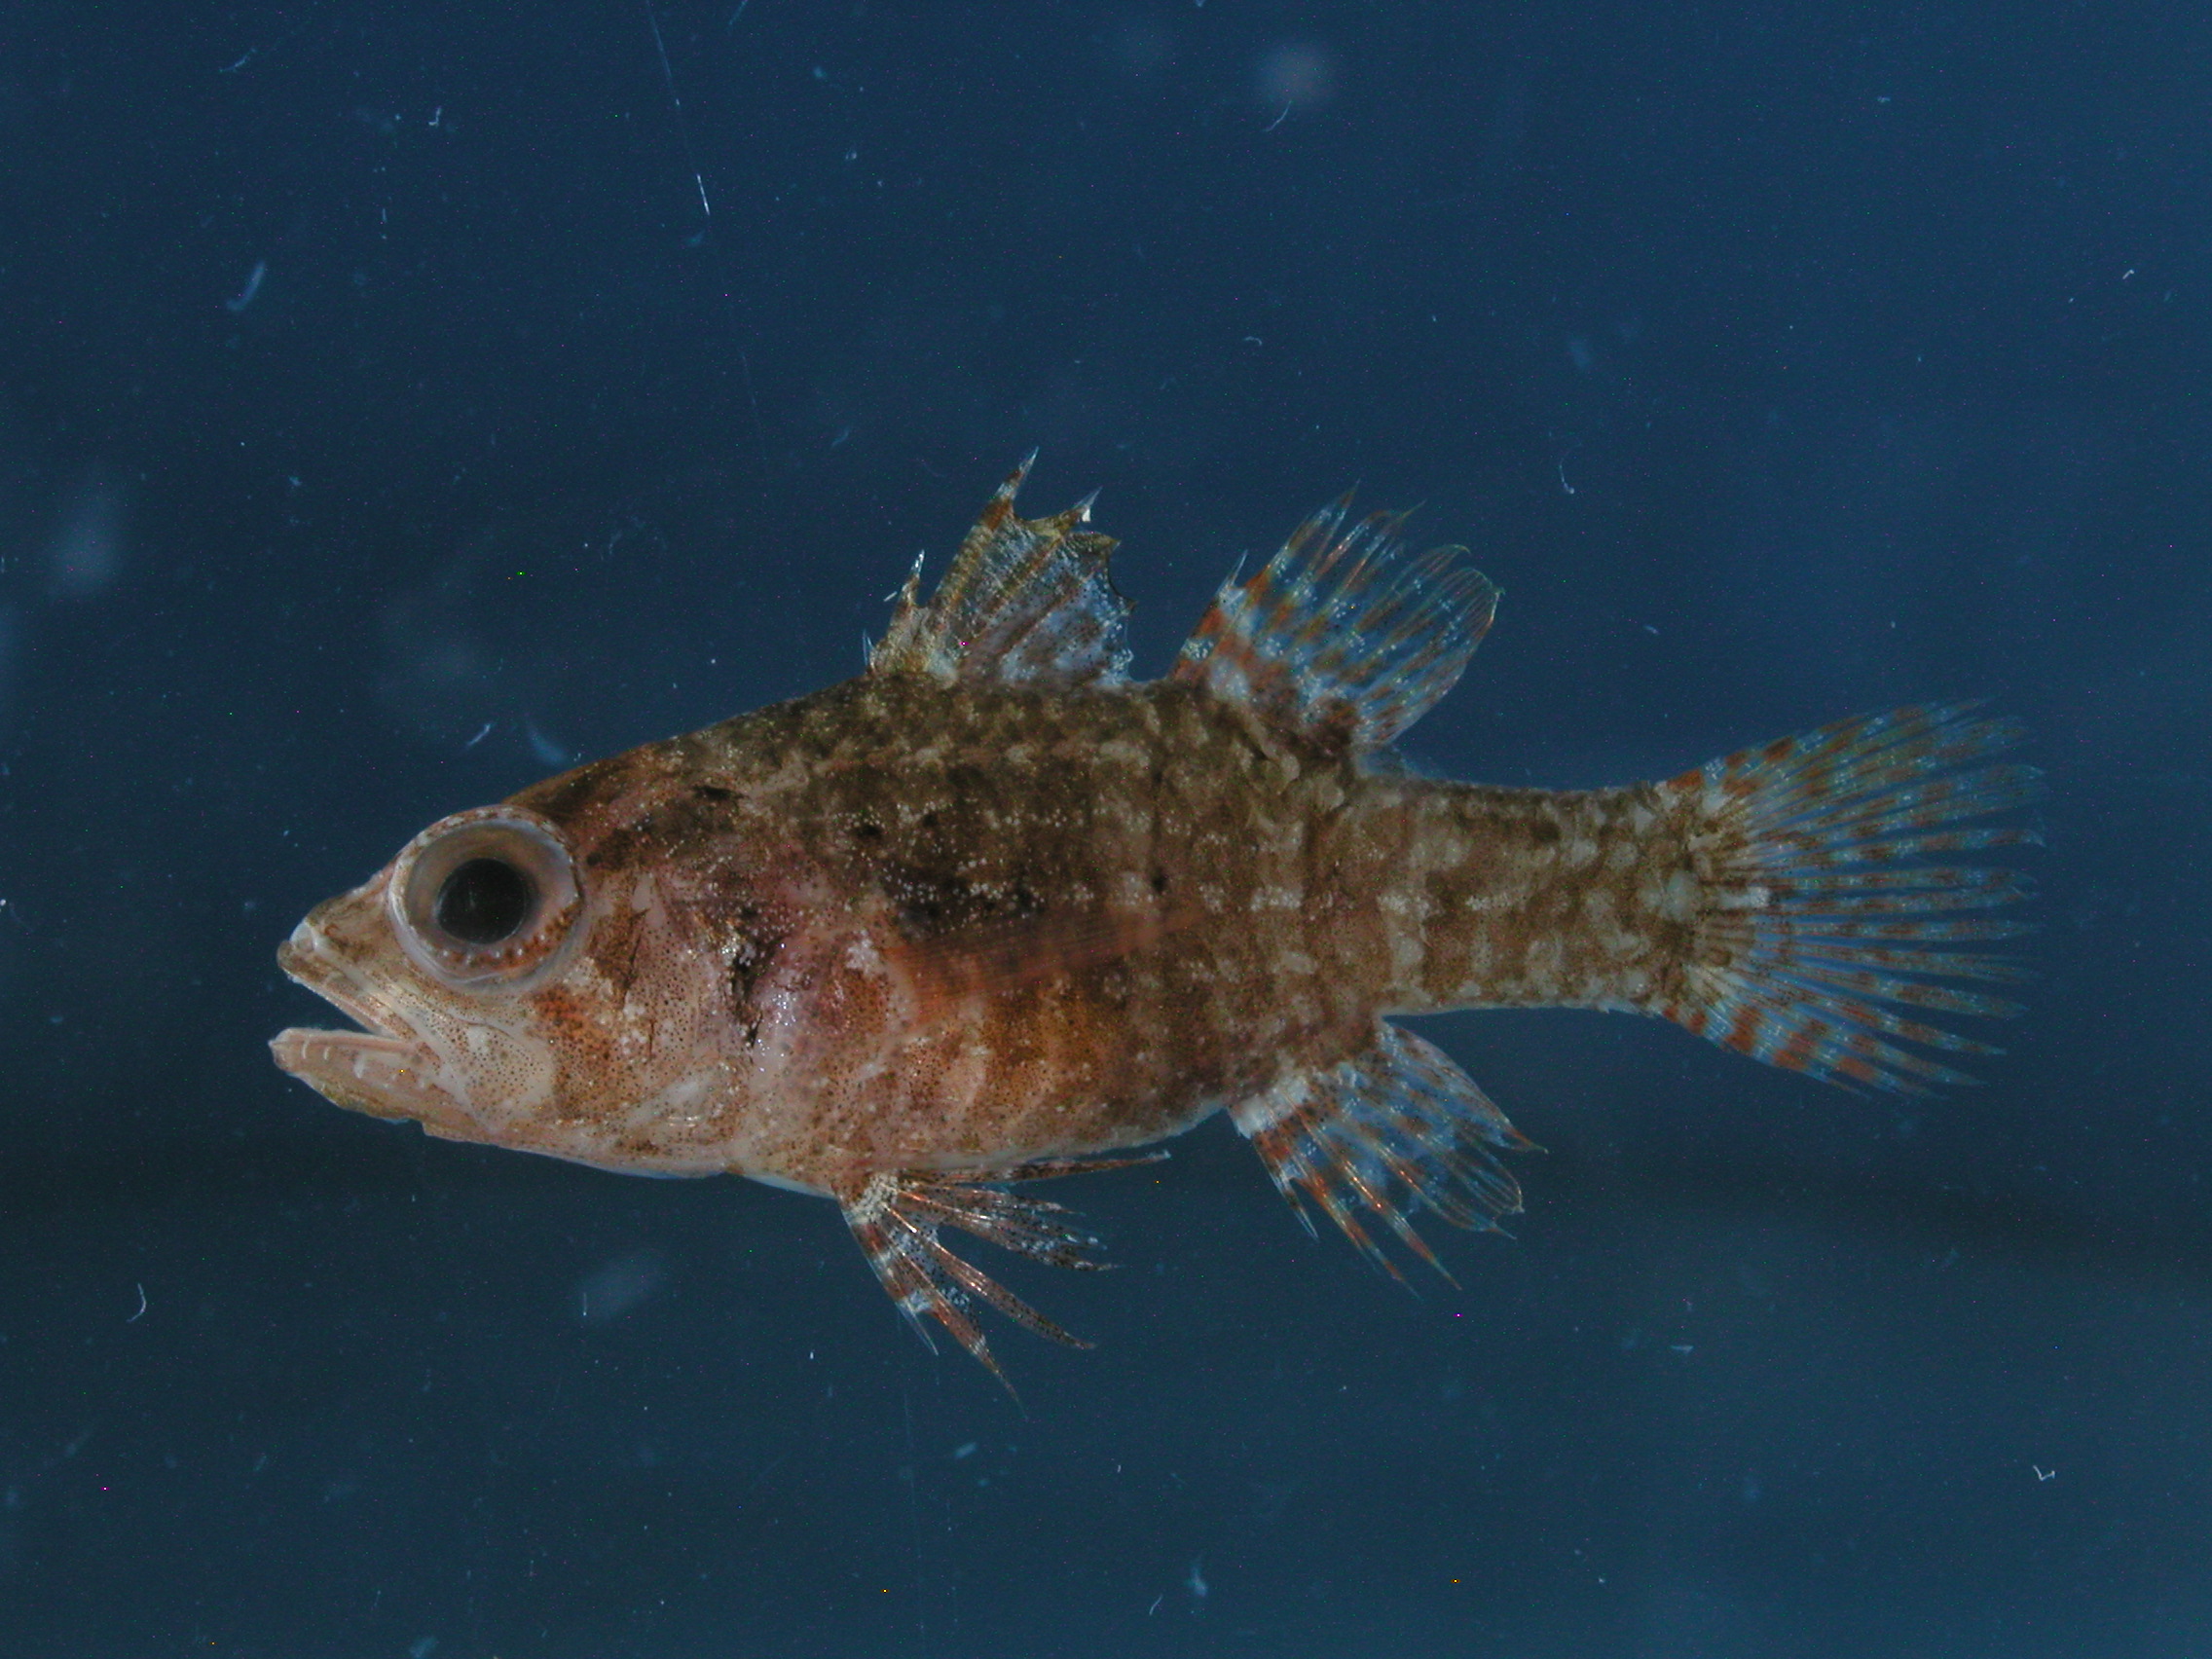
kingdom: Animalia
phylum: Chordata
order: Perciformes
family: Apogonidae
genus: Fowleria
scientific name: Fowleria vaiulae
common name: Dwarf cardinalfish
